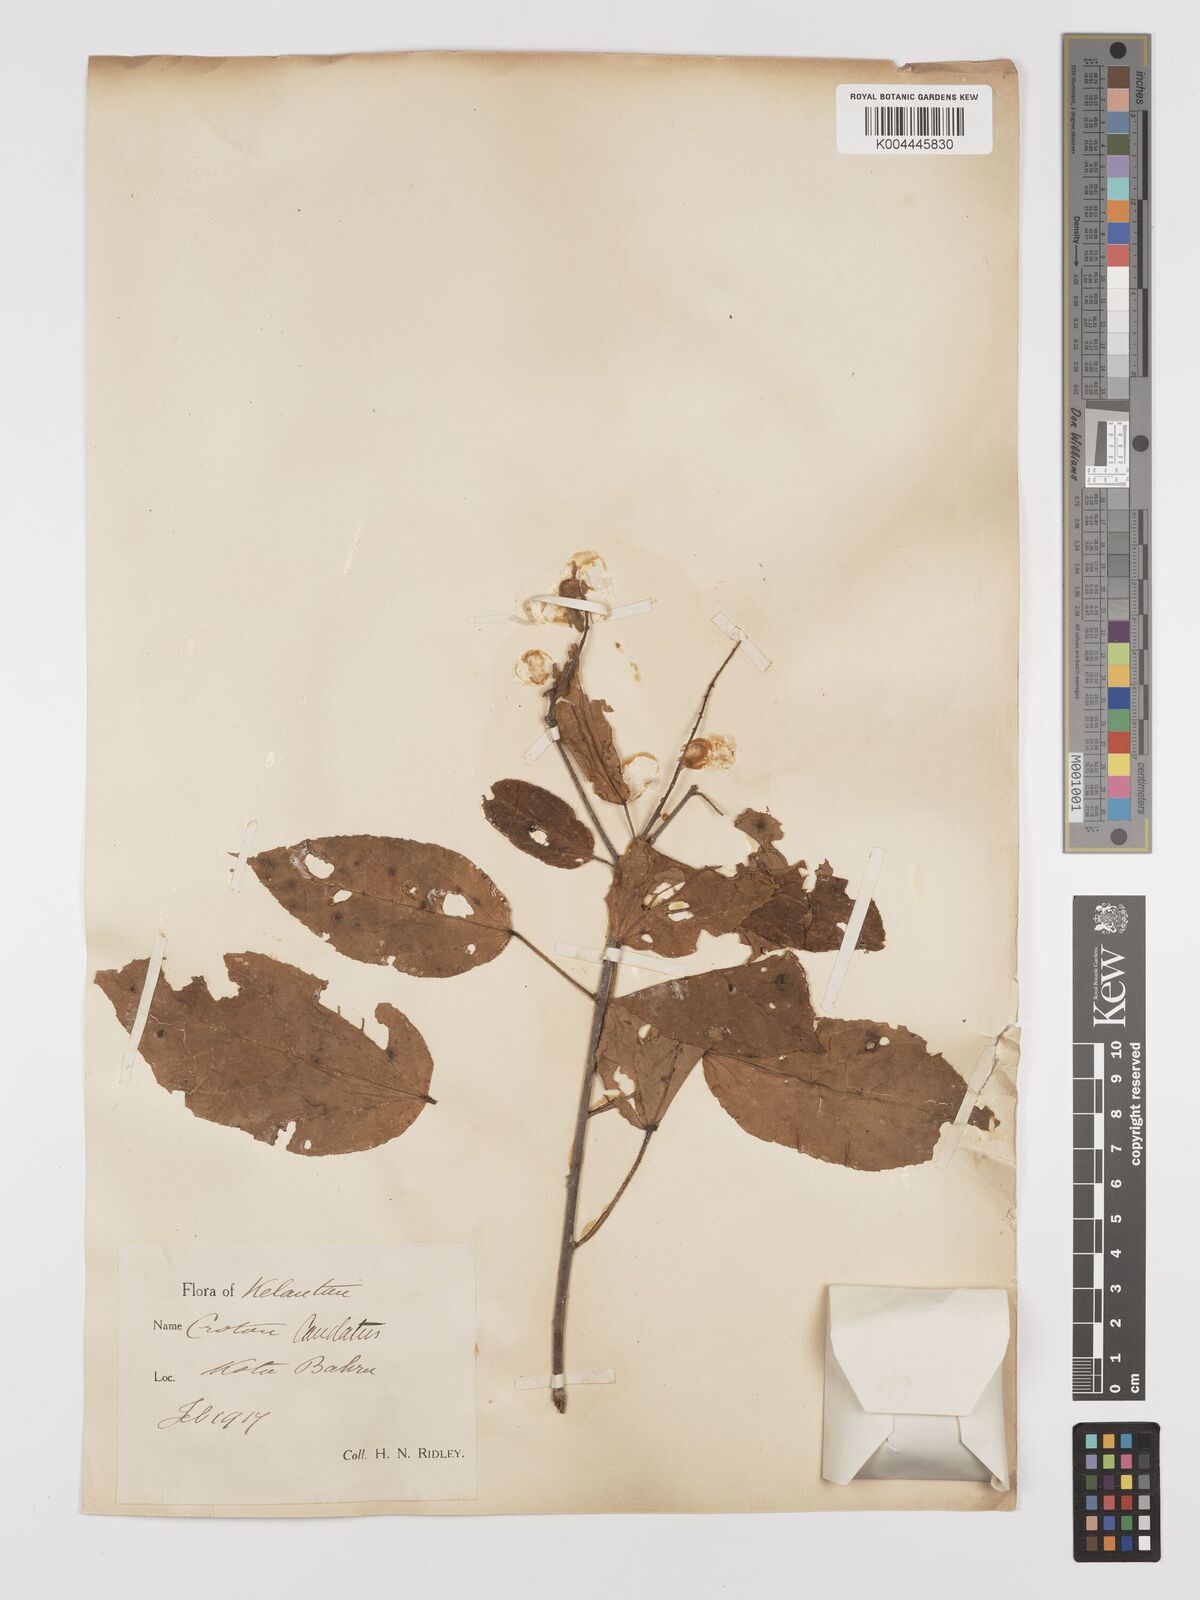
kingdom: Plantae
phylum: Tracheophyta
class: Magnoliopsida
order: Malpighiales
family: Euphorbiaceae
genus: Croton
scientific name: Croton caudatus
